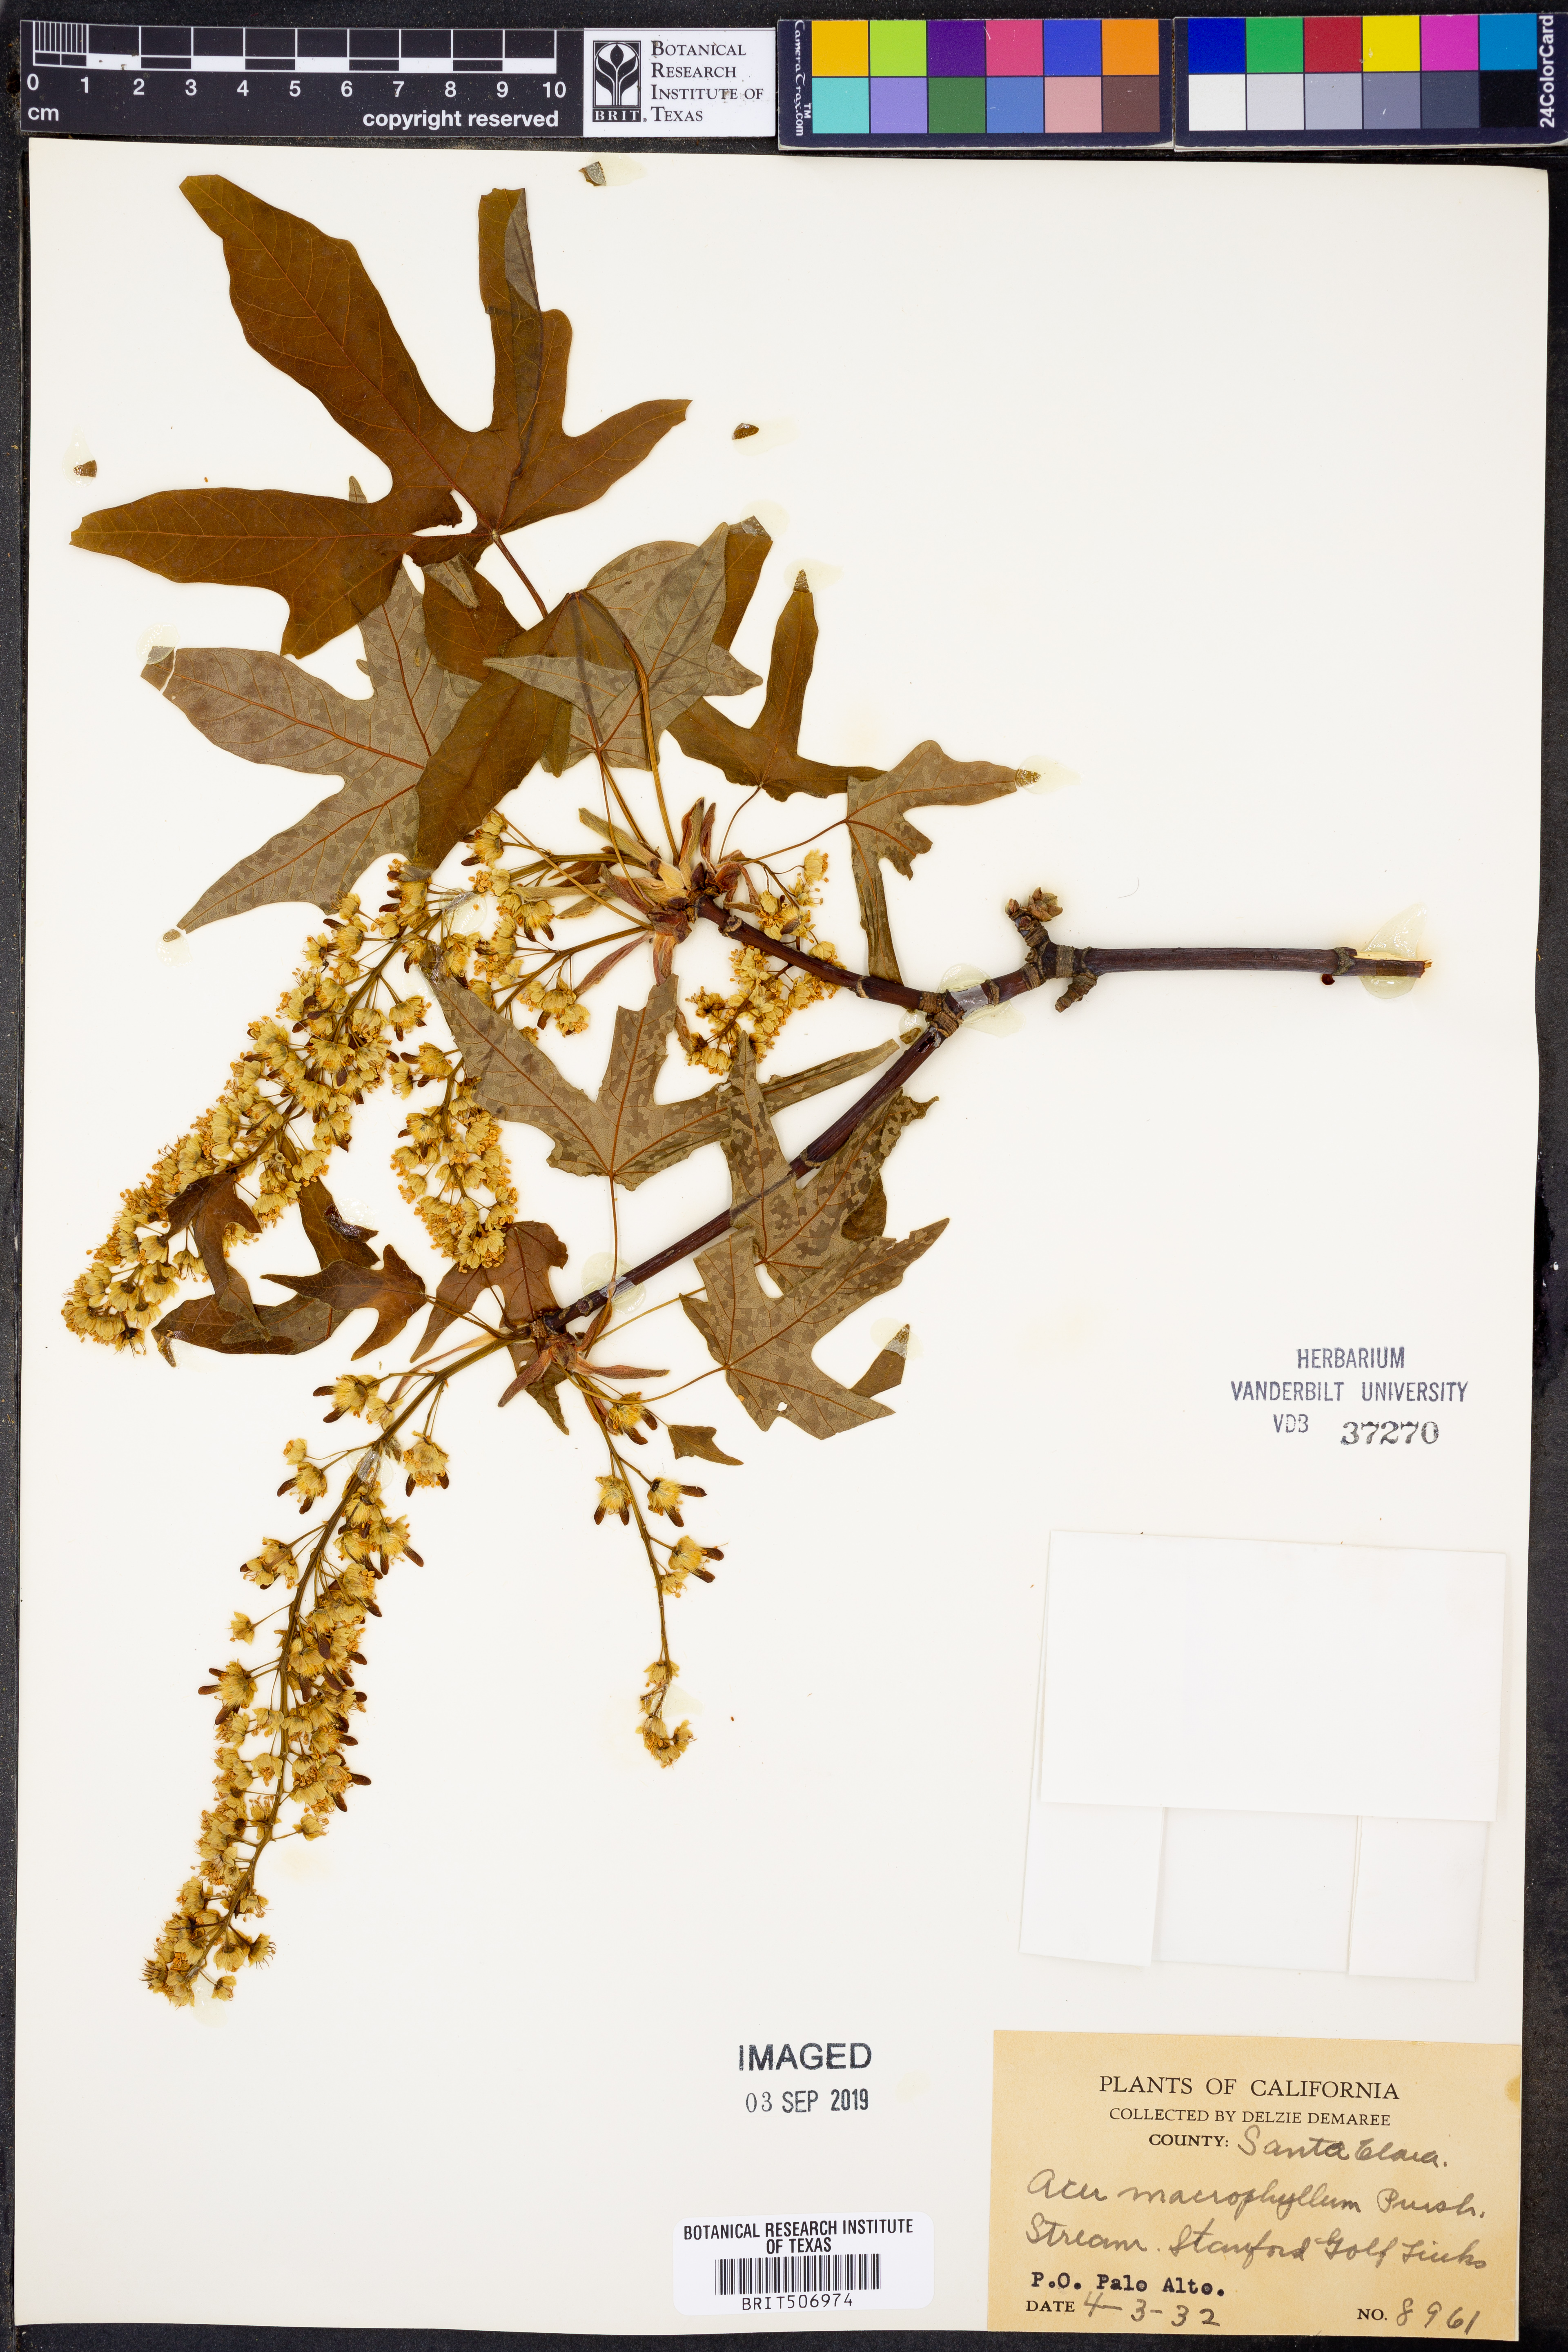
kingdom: Plantae
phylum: Tracheophyta
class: Magnoliopsida
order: Sapindales
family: Sapindaceae
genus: Acer
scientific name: Acer macrophyllum
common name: Oregon maple
